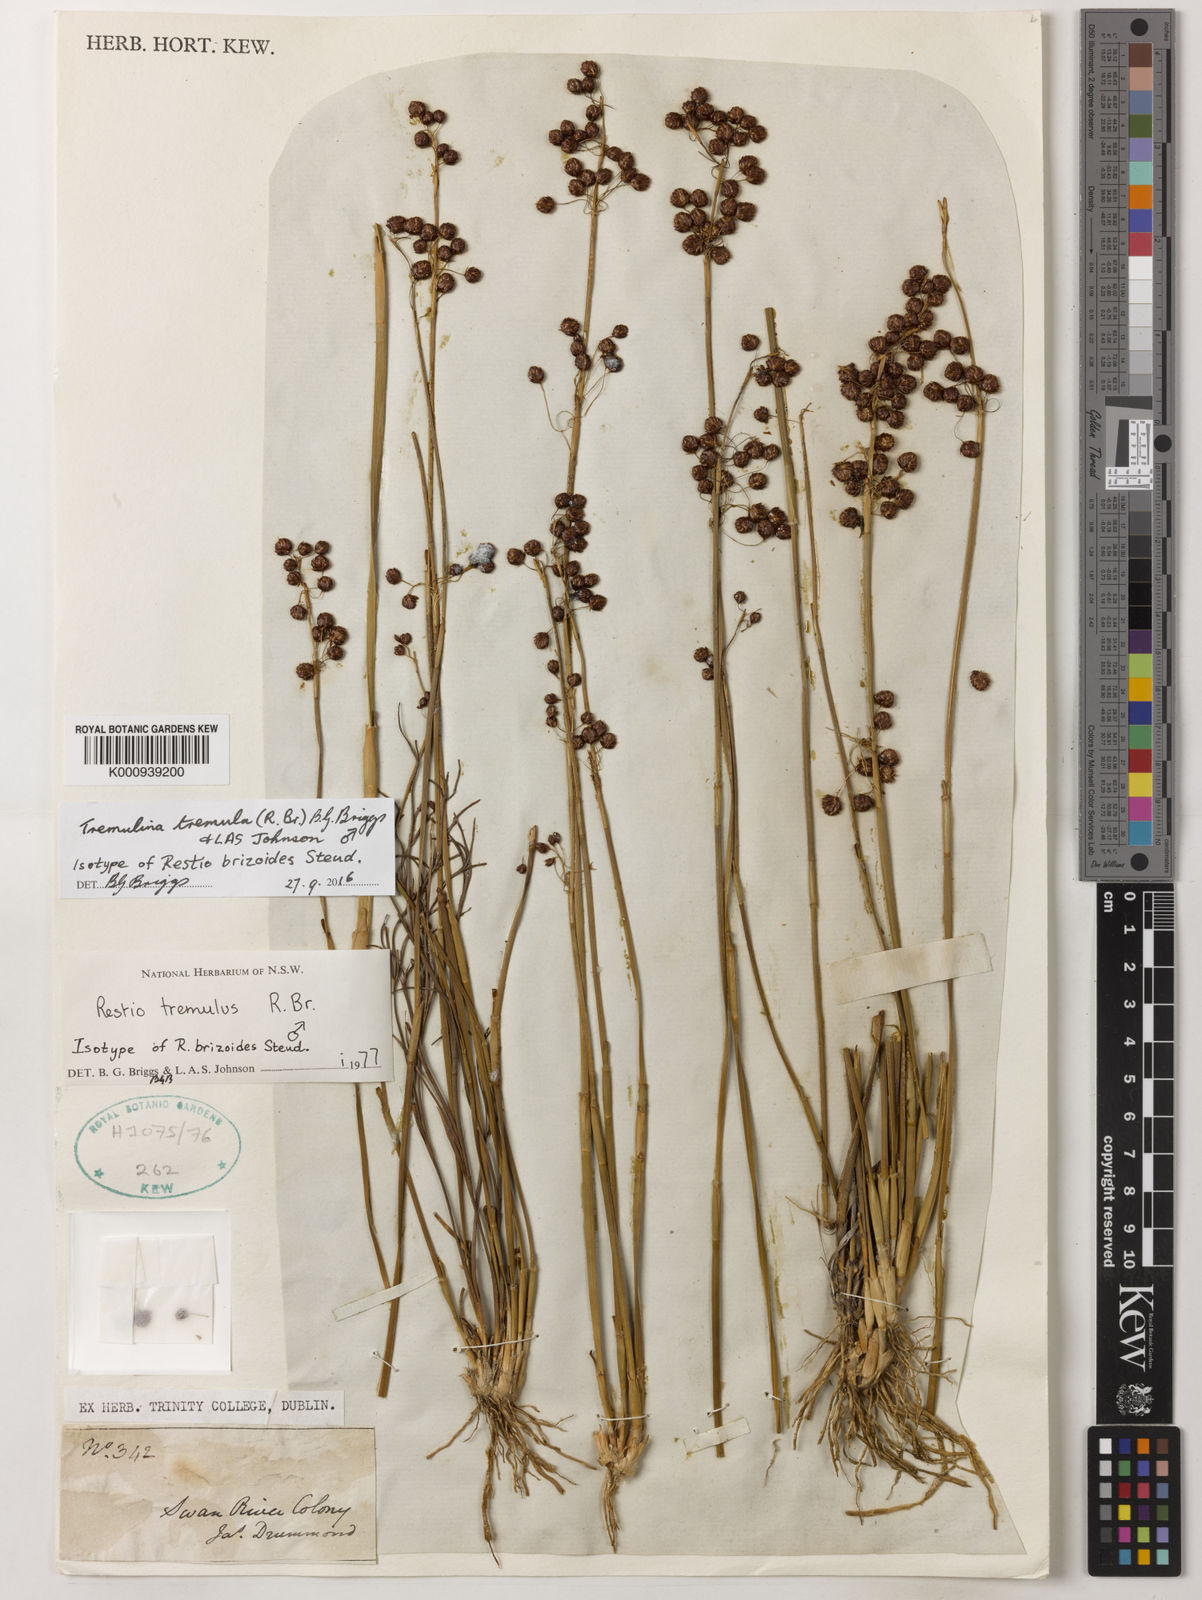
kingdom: Plantae
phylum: Tracheophyta
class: Liliopsida
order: Poales
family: Restionaceae
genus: Tremulina
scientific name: Tremulina tremula
